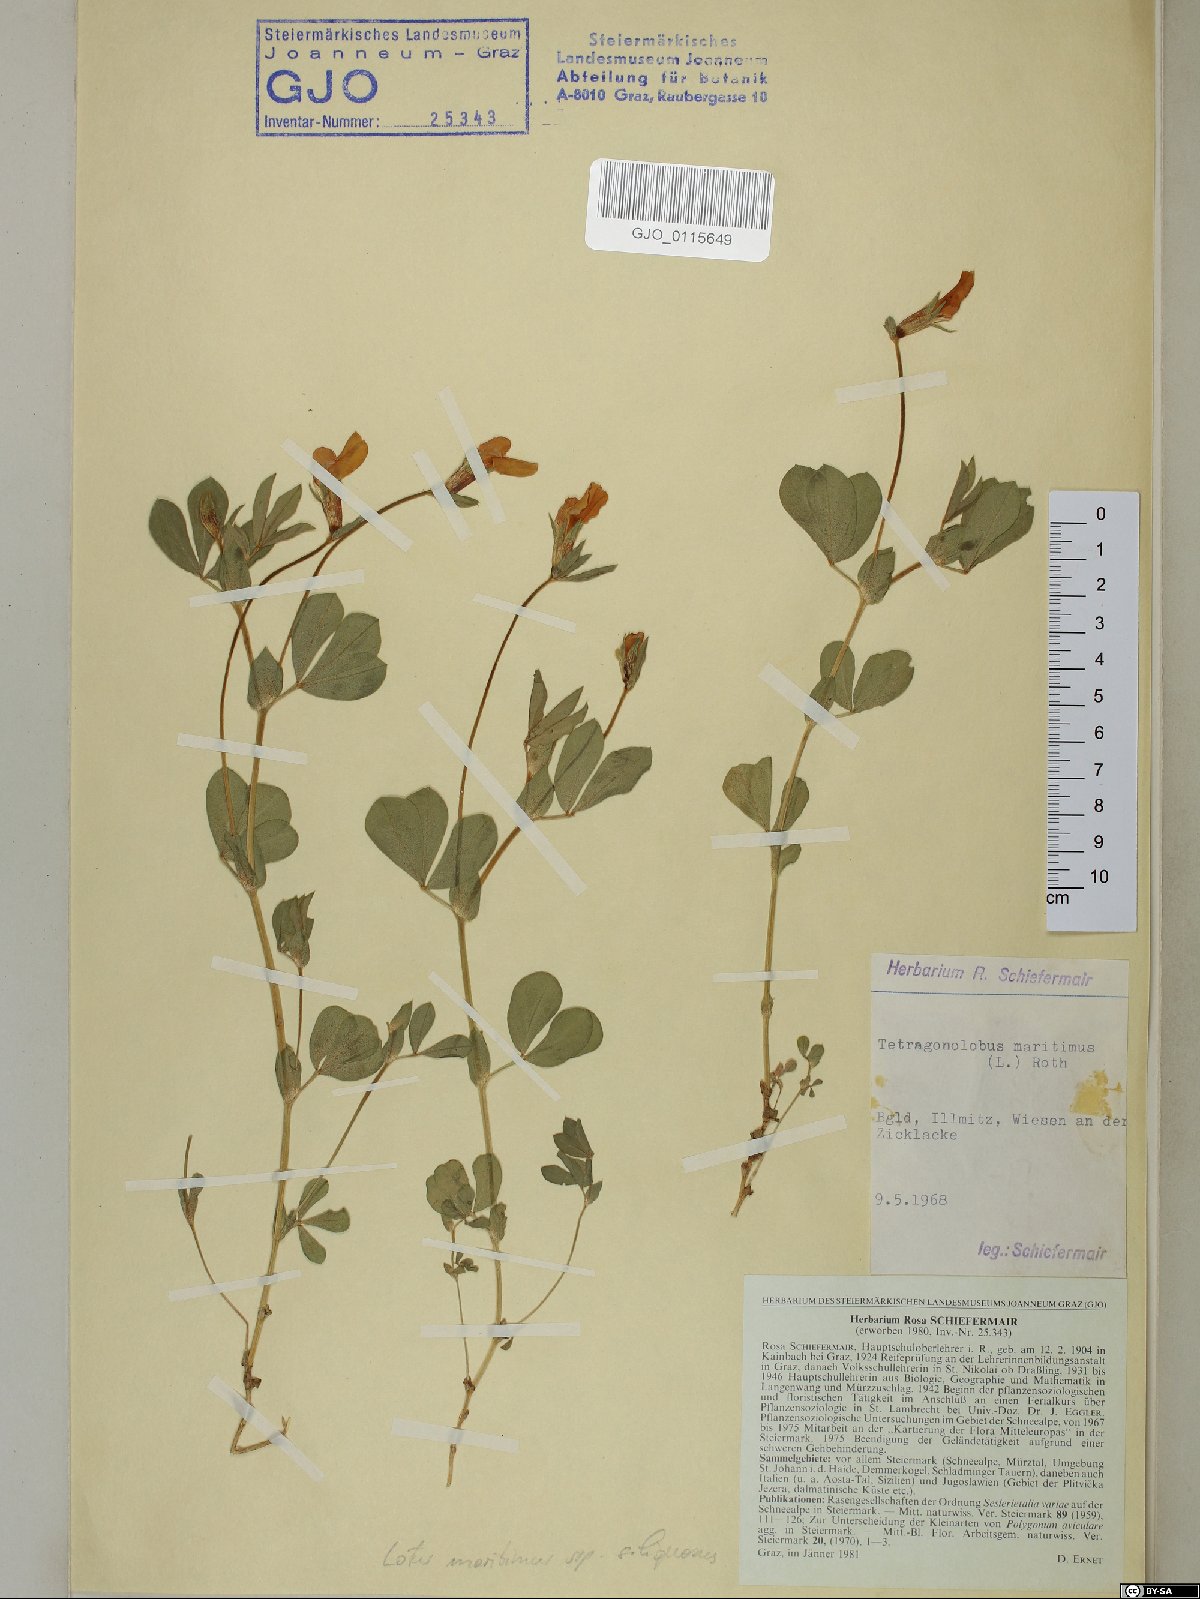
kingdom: Plantae
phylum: Tracheophyta
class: Magnoliopsida
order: Fabales
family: Fabaceae
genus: Lotus
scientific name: Lotus maritimus
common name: Dragon's-teeth
